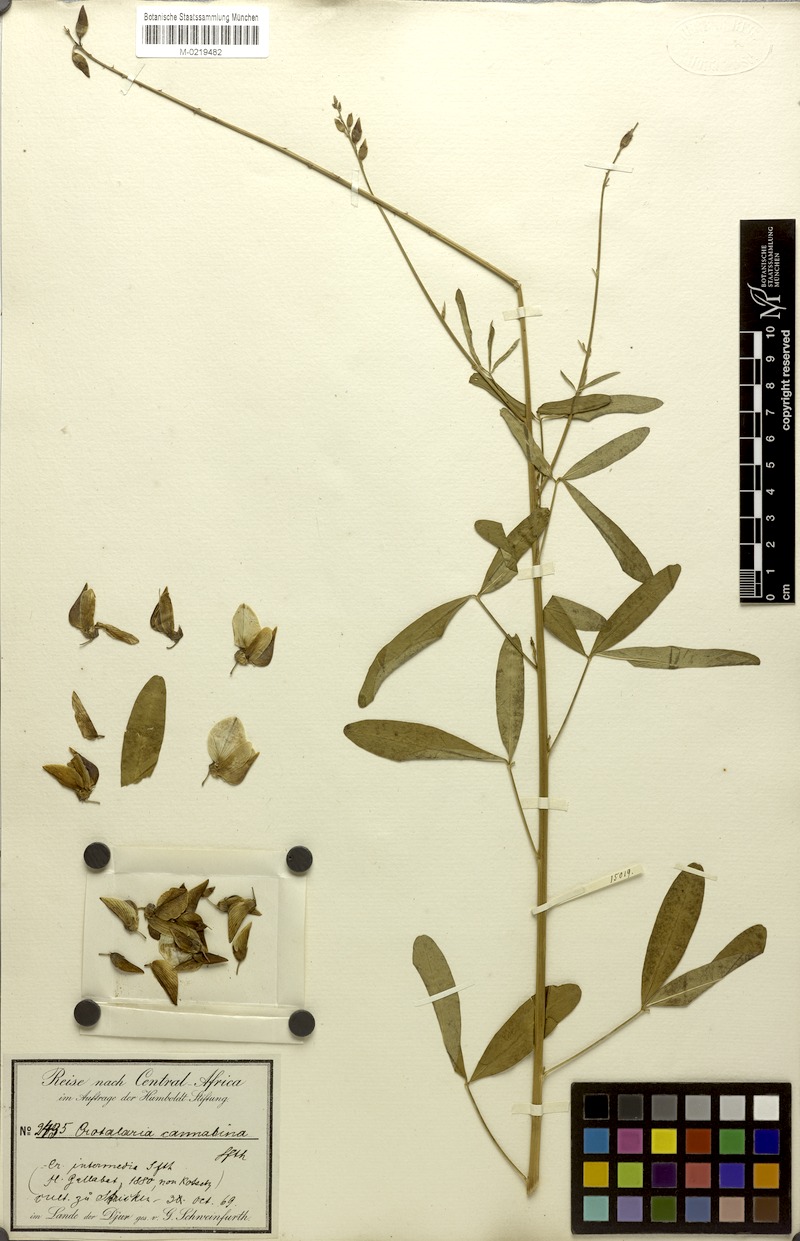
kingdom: Plantae
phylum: Tracheophyta
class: Magnoliopsida
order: Fabales
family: Fabaceae
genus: Crotalaria
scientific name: Crotalaria ochroleuca
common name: Slender leaf rattlebox
